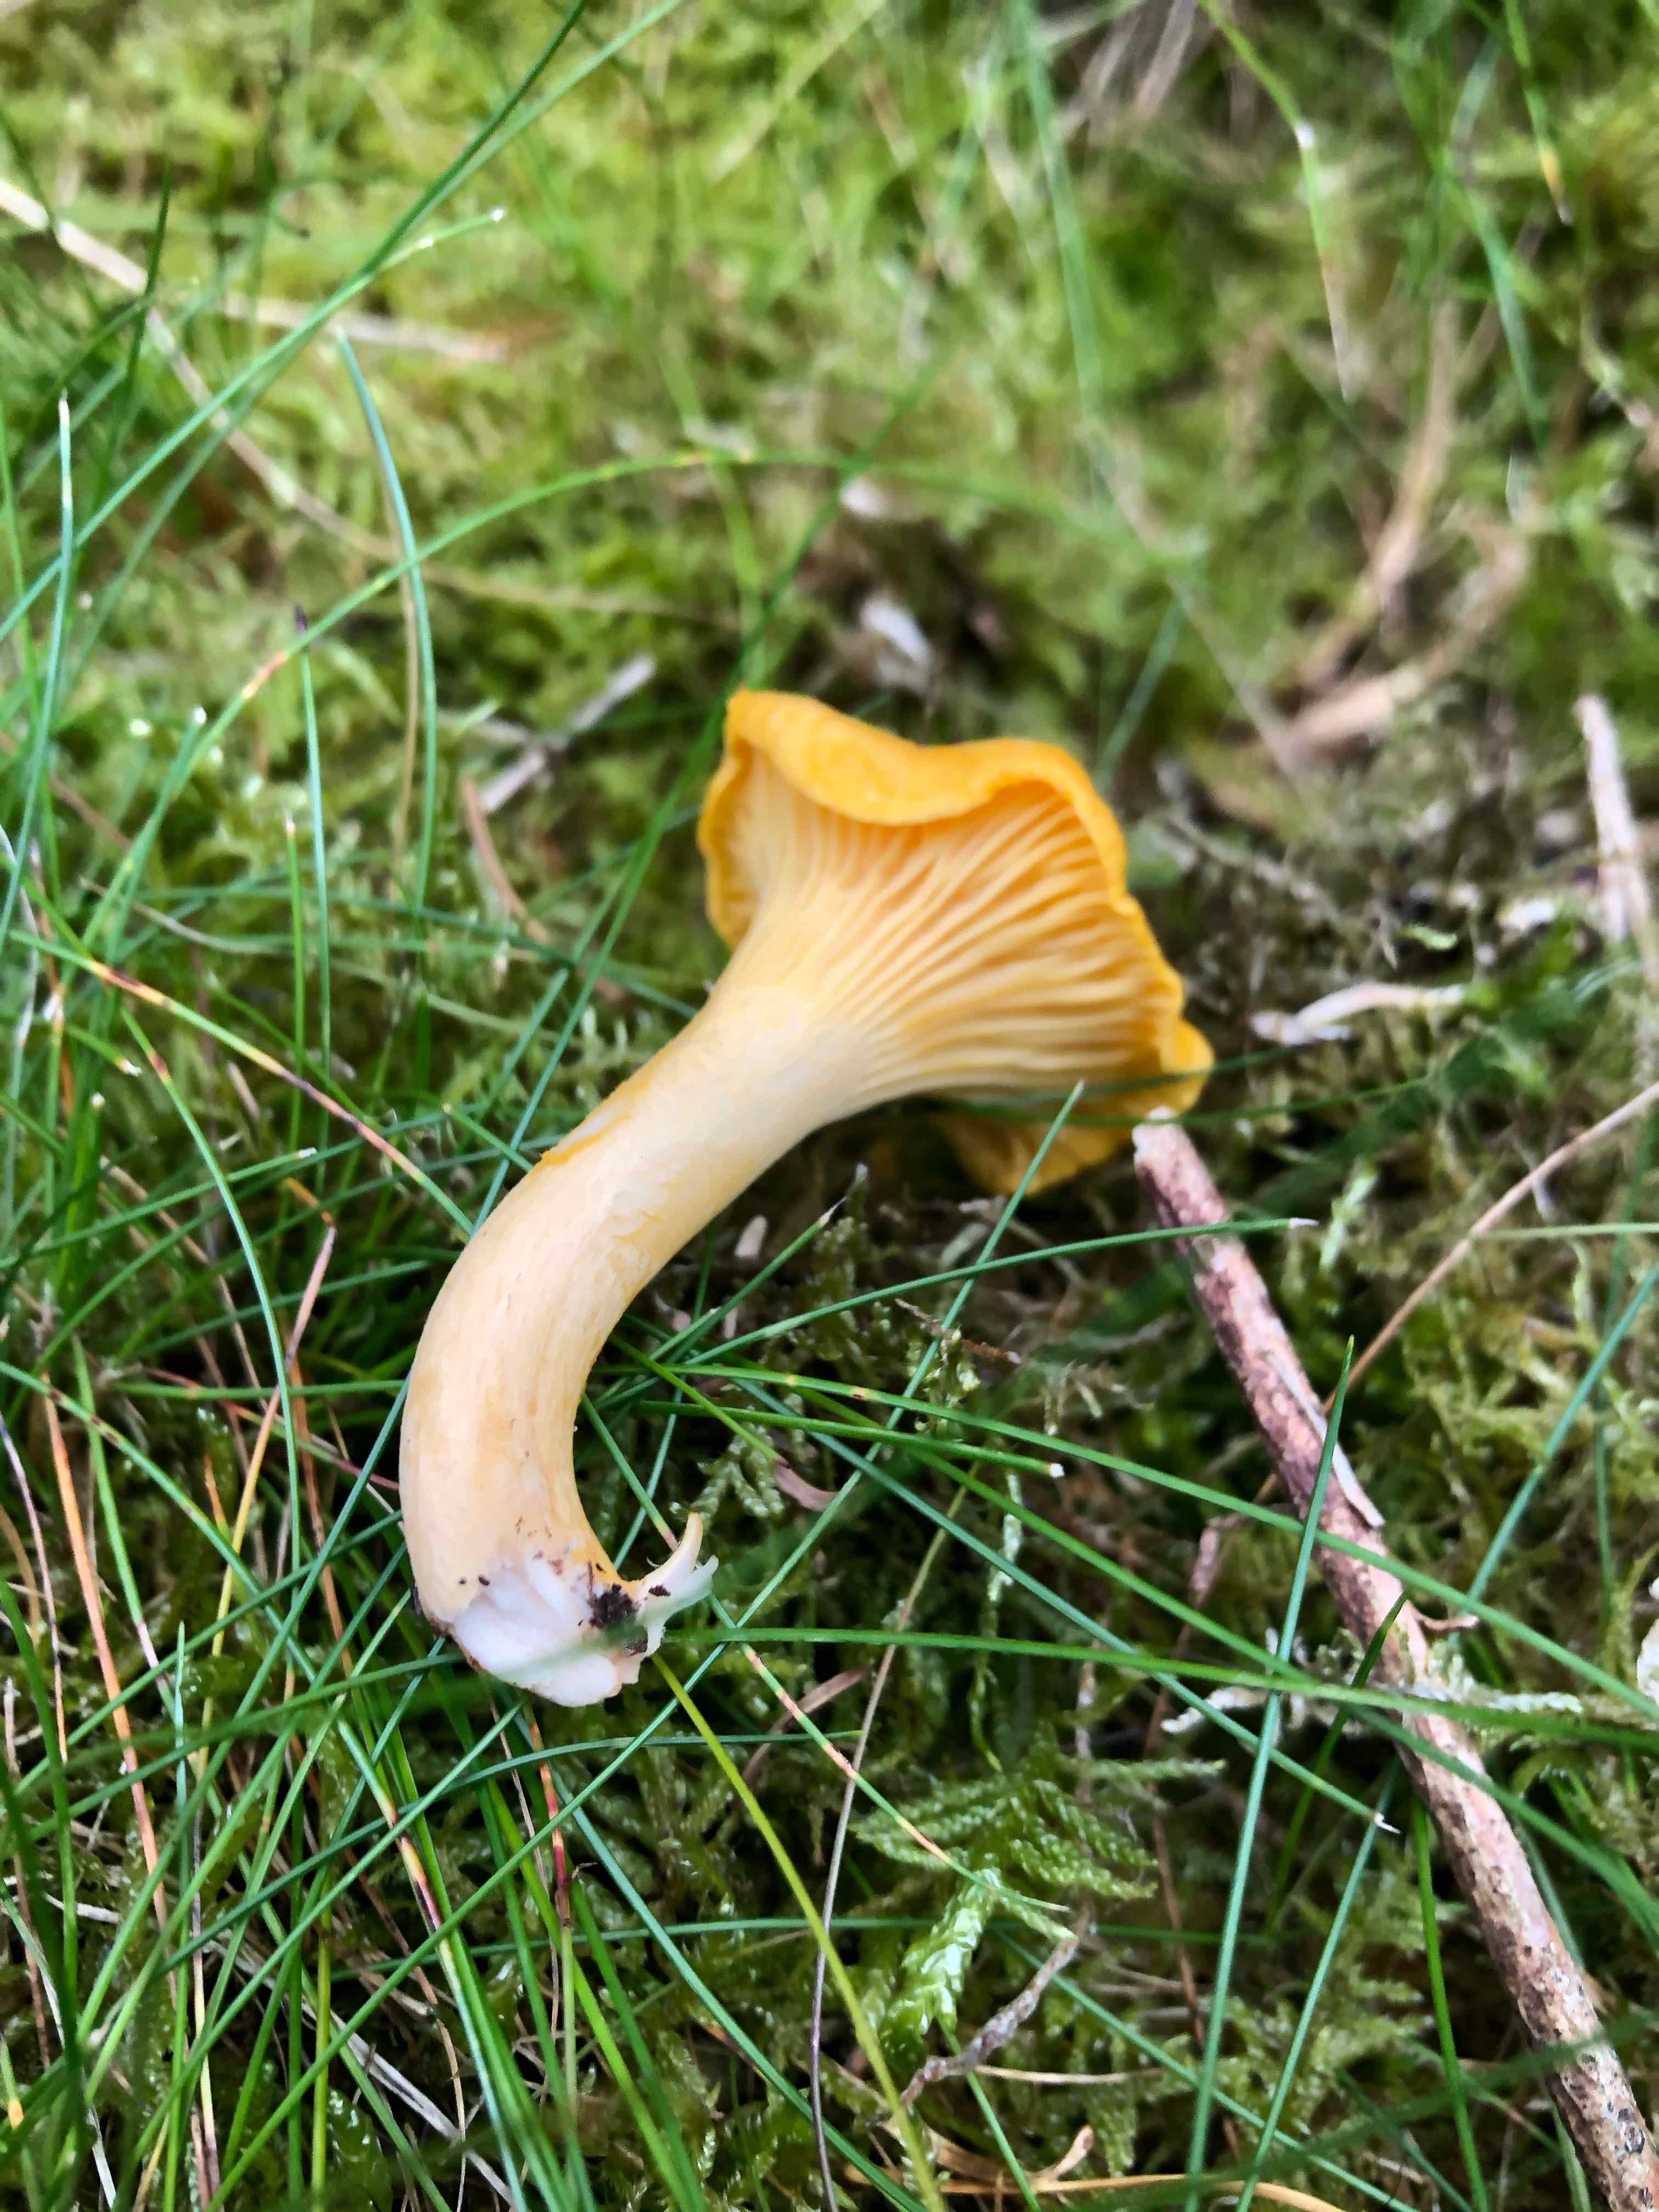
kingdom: Fungi
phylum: Basidiomycota
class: Agaricomycetes
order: Cantharellales
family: Hydnaceae
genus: Cantharellus
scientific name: Cantharellus cibarius
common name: almindelig kantarel
